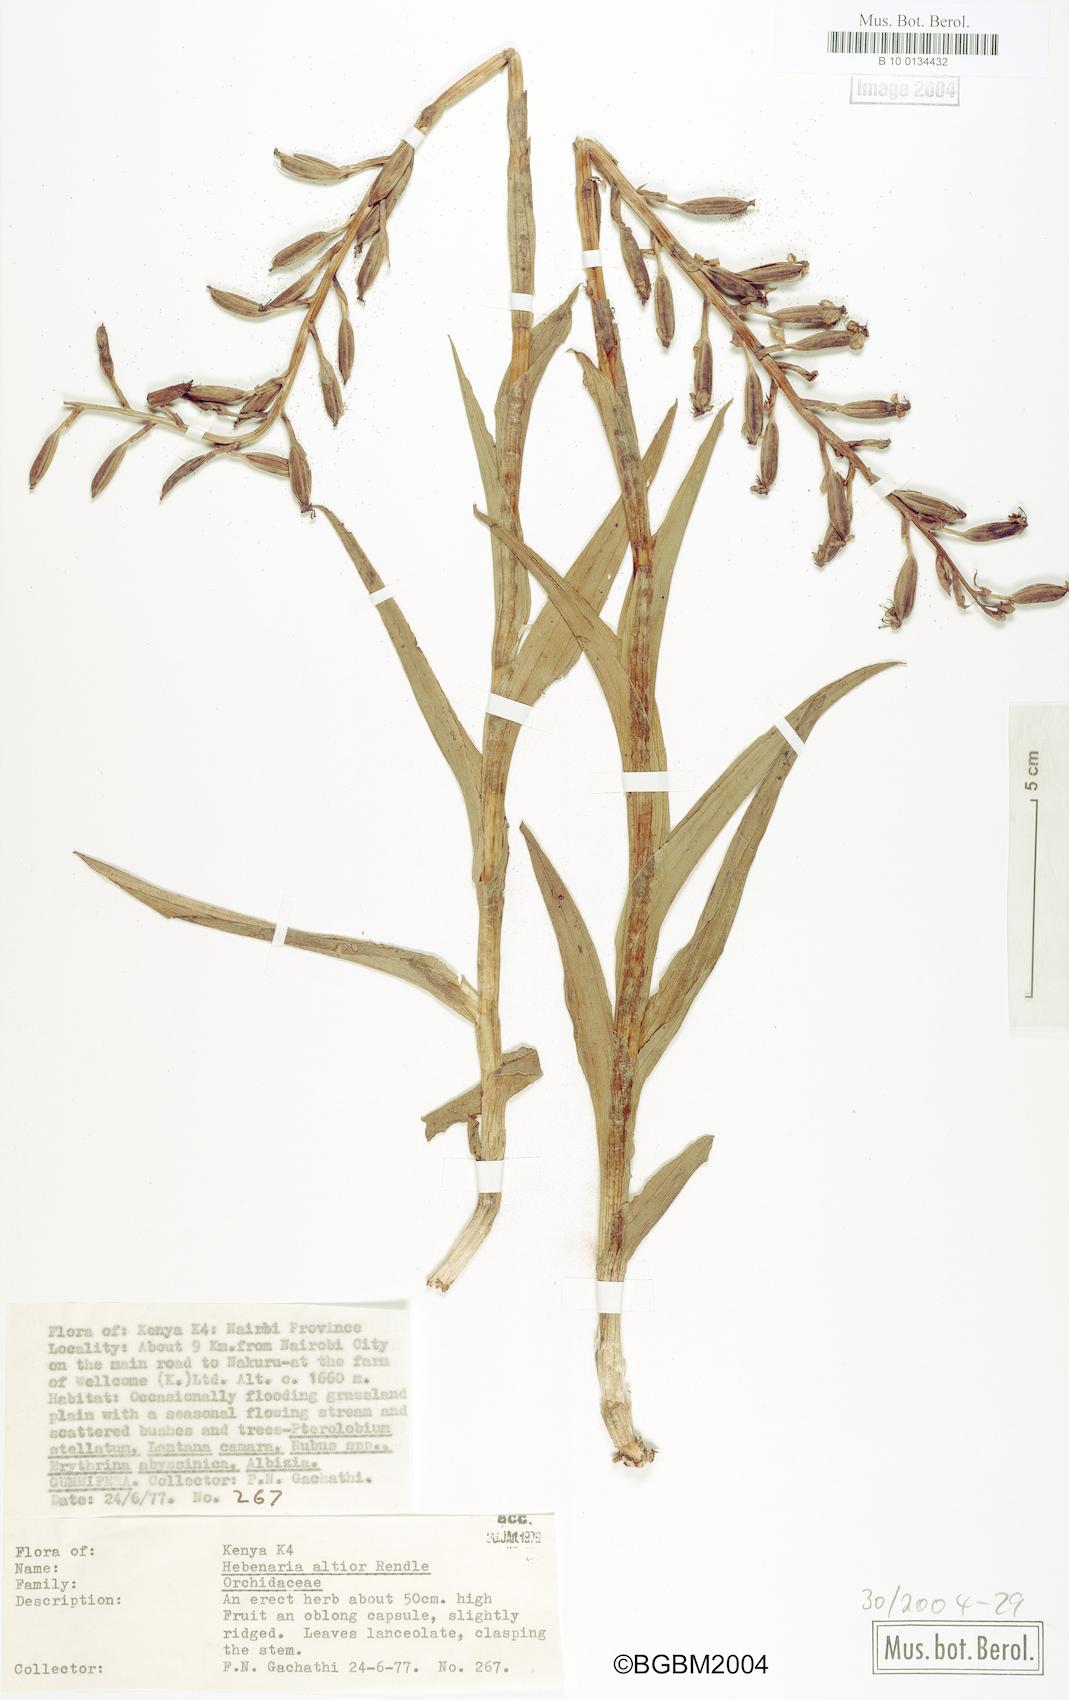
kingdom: Plantae
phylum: Tracheophyta
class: Liliopsida
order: Asparagales
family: Orchidaceae
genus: Habenaria
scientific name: Habenaria altior
